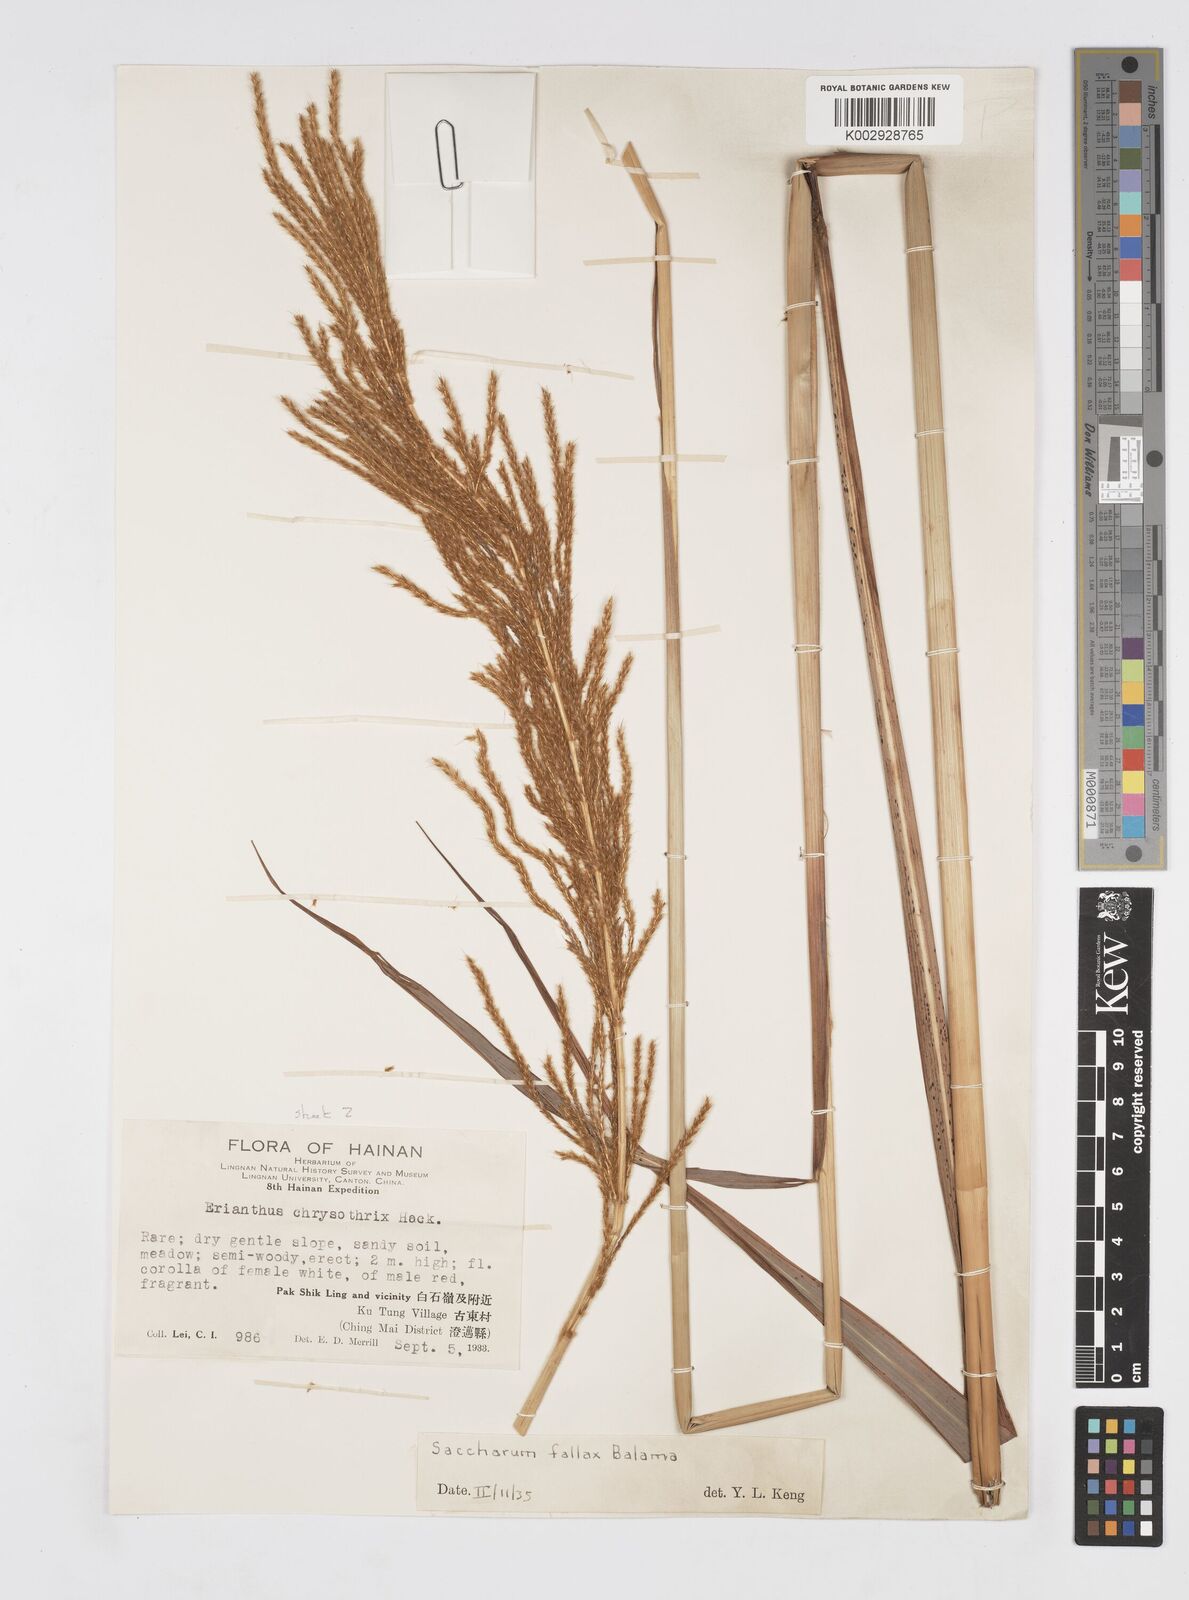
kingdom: Plantae
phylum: Tracheophyta
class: Liliopsida
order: Poales
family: Poaceae
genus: Narenga
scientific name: Narenga fallax
